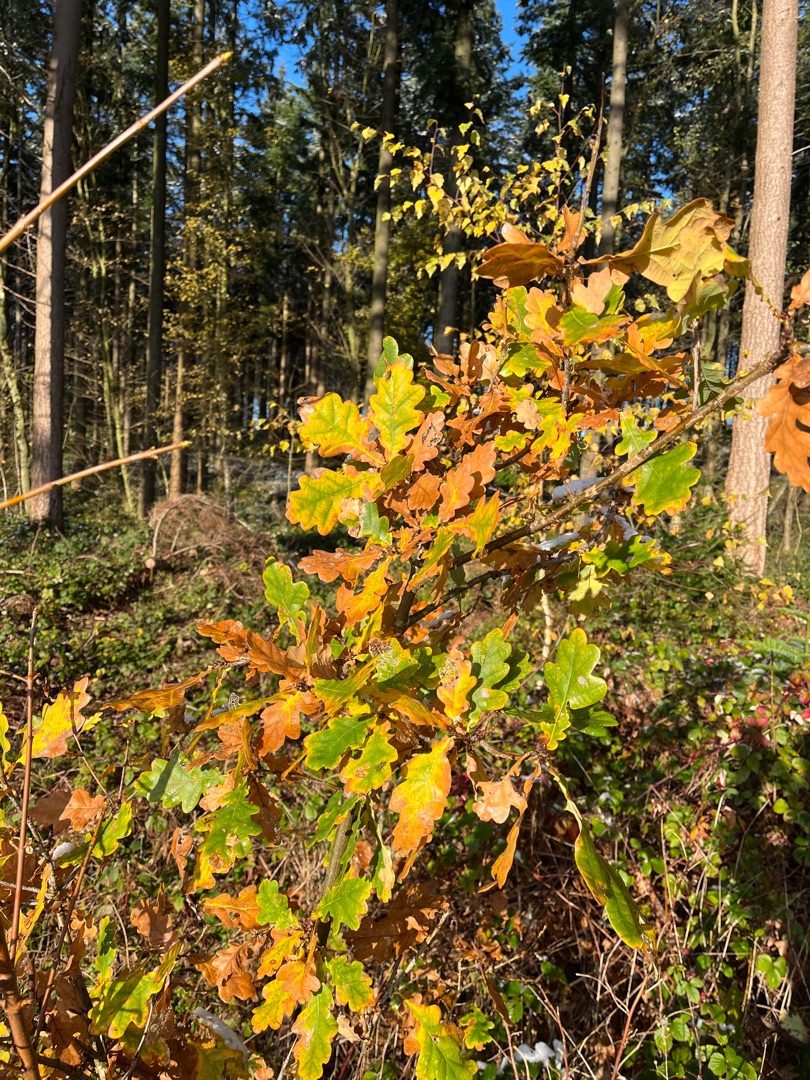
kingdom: Plantae
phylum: Tracheophyta
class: Magnoliopsida
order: Fagales
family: Fagaceae
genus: Quercus
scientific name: Quercus robur
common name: Stilk-eg/almindelig eg
